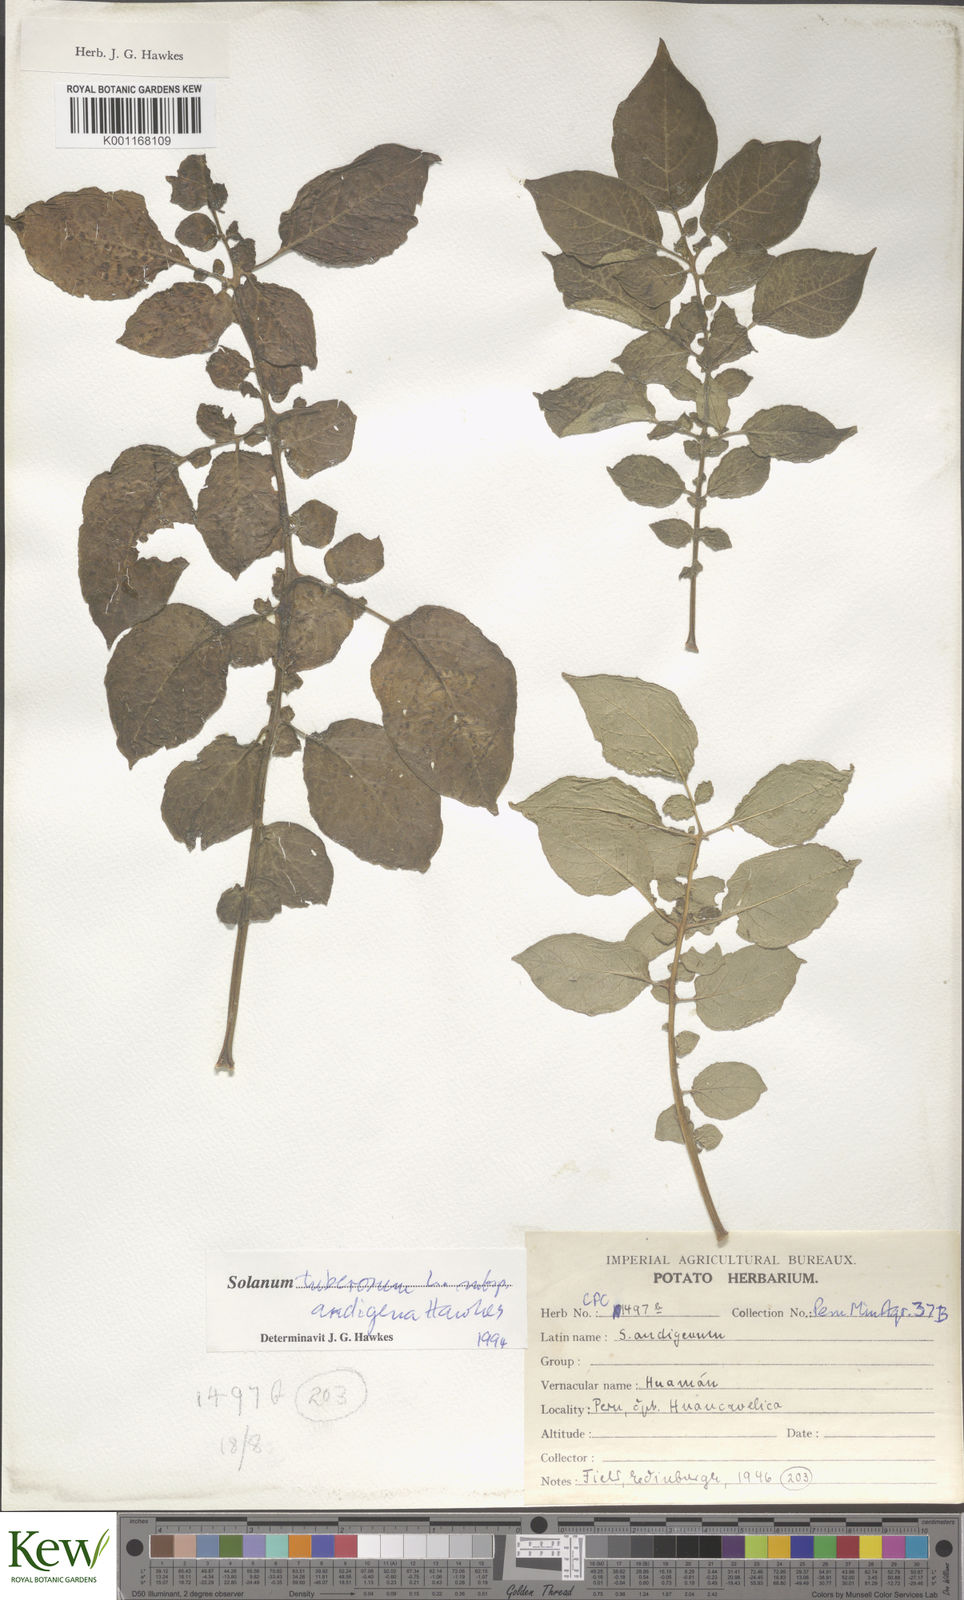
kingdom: Plantae
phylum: Tracheophyta
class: Magnoliopsida
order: Solanales
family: Solanaceae
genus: Solanum
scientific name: Solanum tuberosum
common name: Potato
